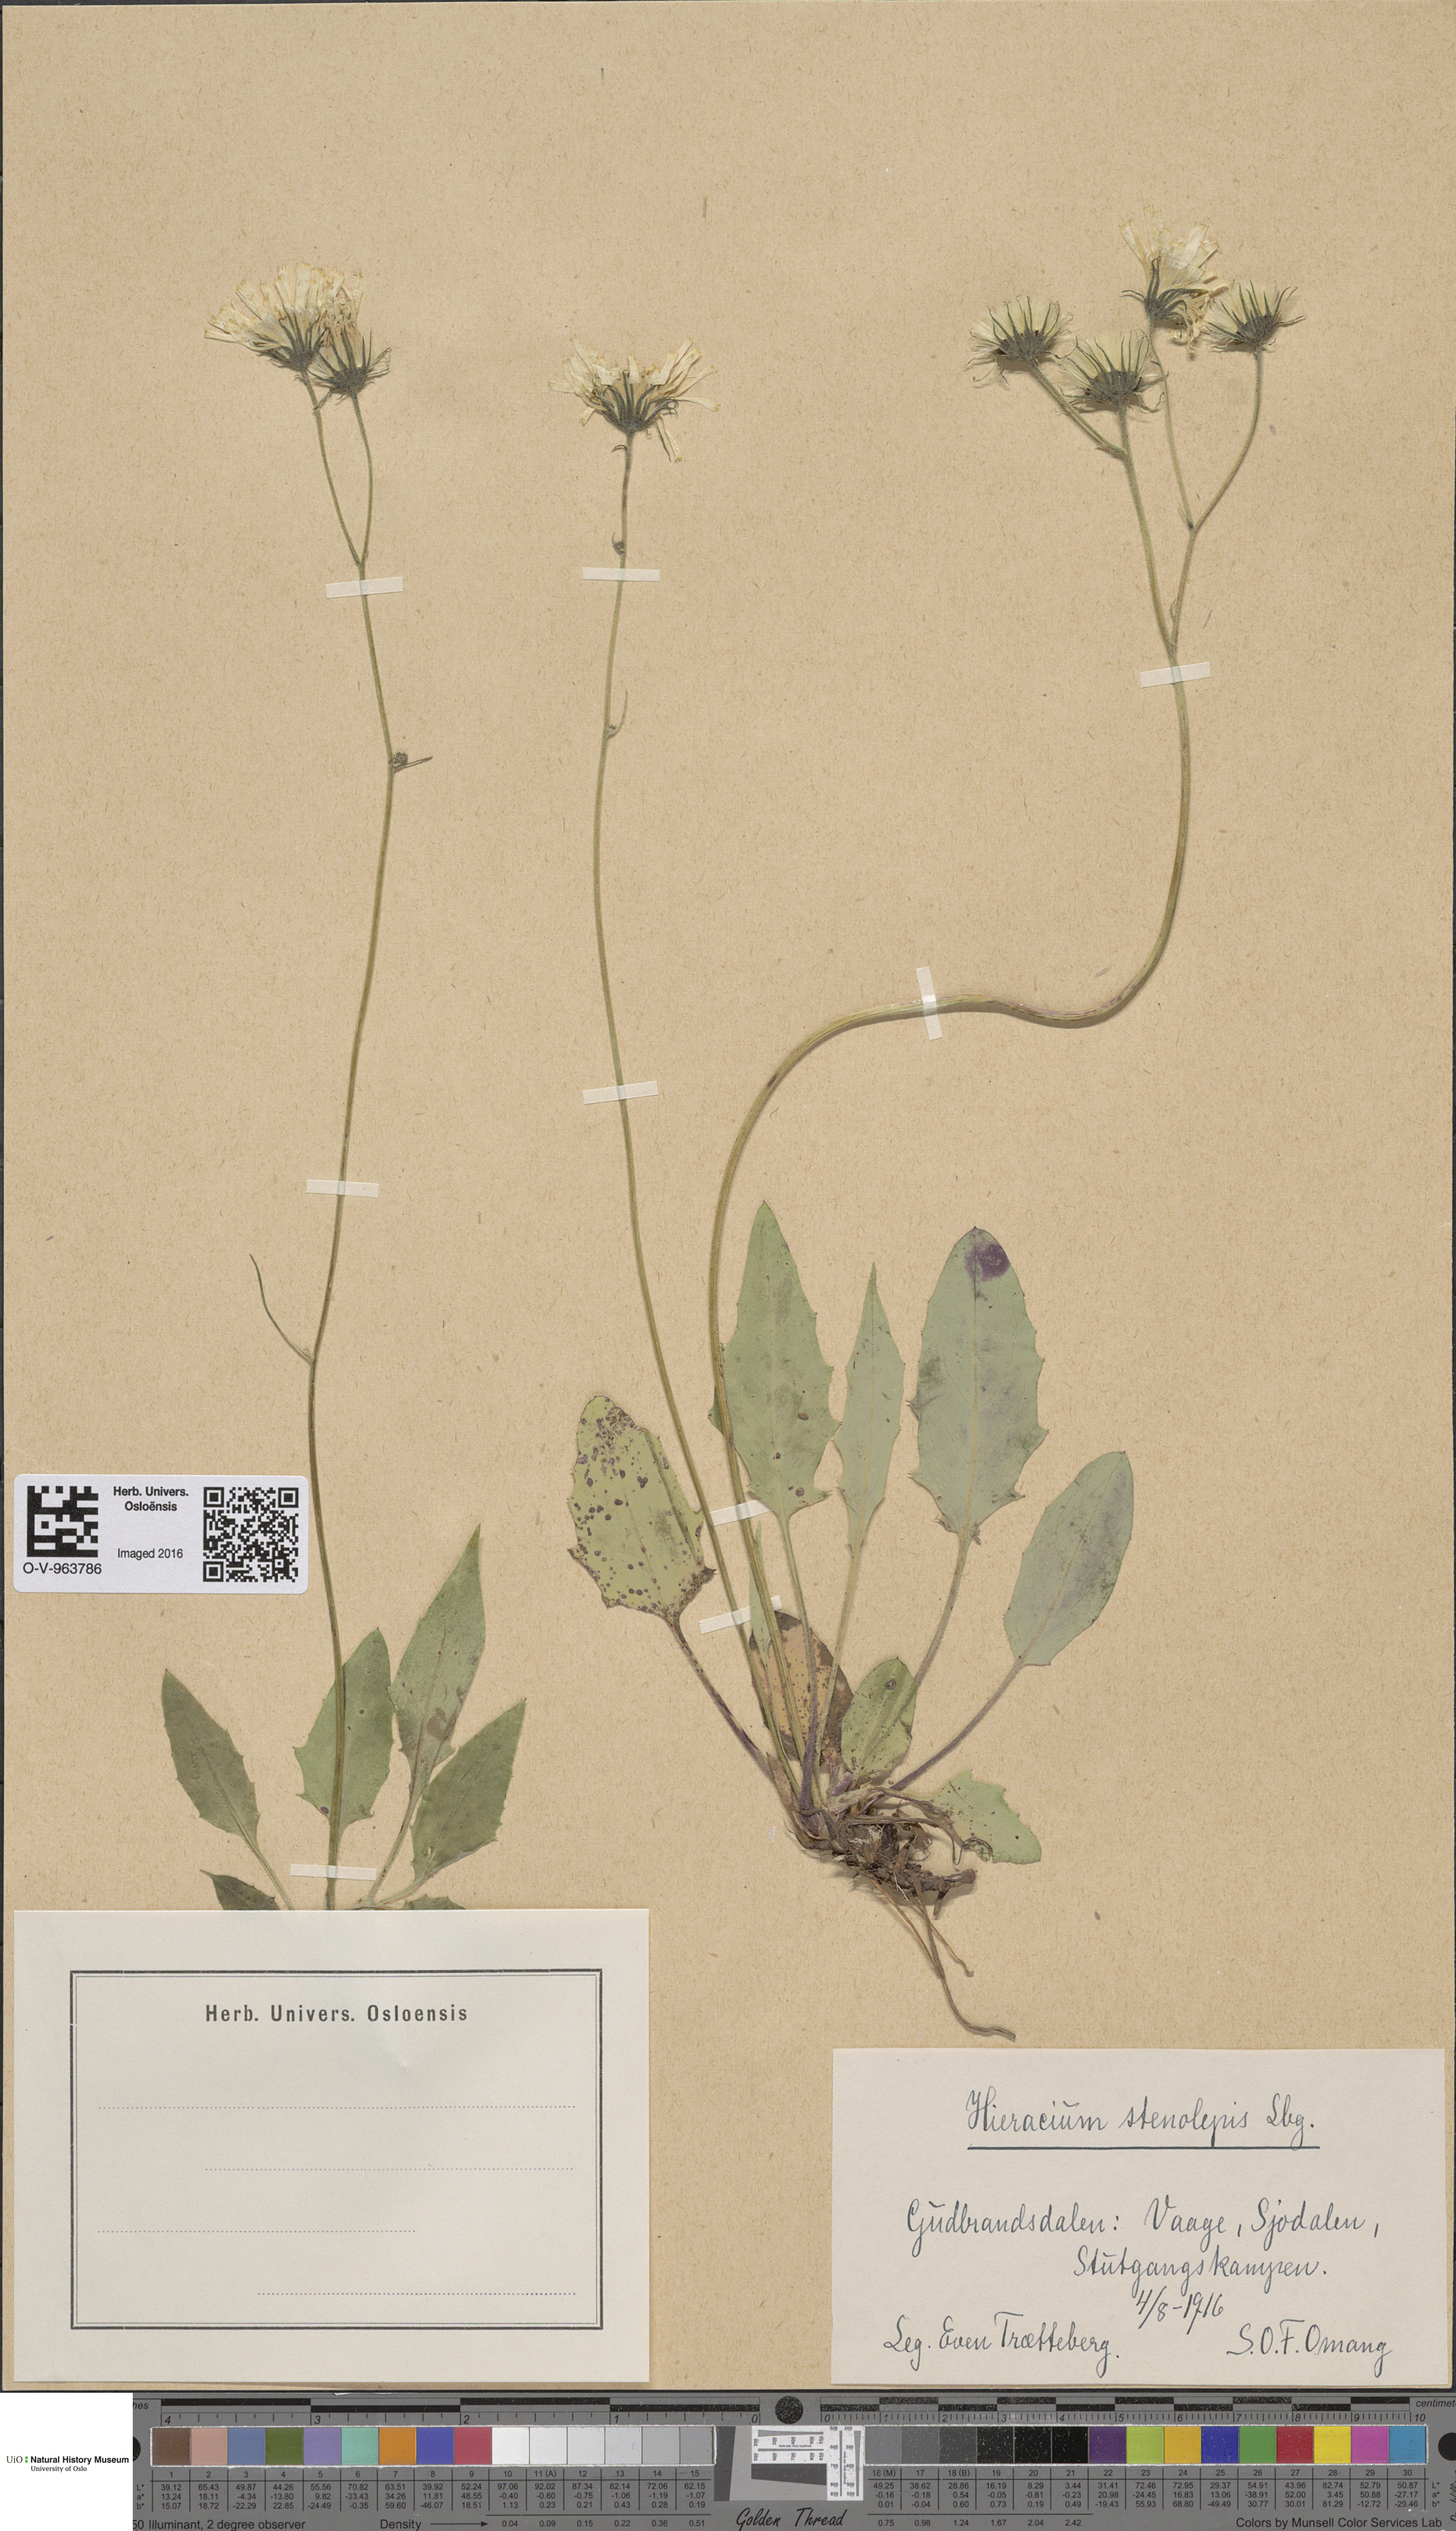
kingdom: Plantae
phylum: Tracheophyta
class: Magnoliopsida
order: Asterales
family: Asteraceae
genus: Hieracium
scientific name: Hieracium bifidum
